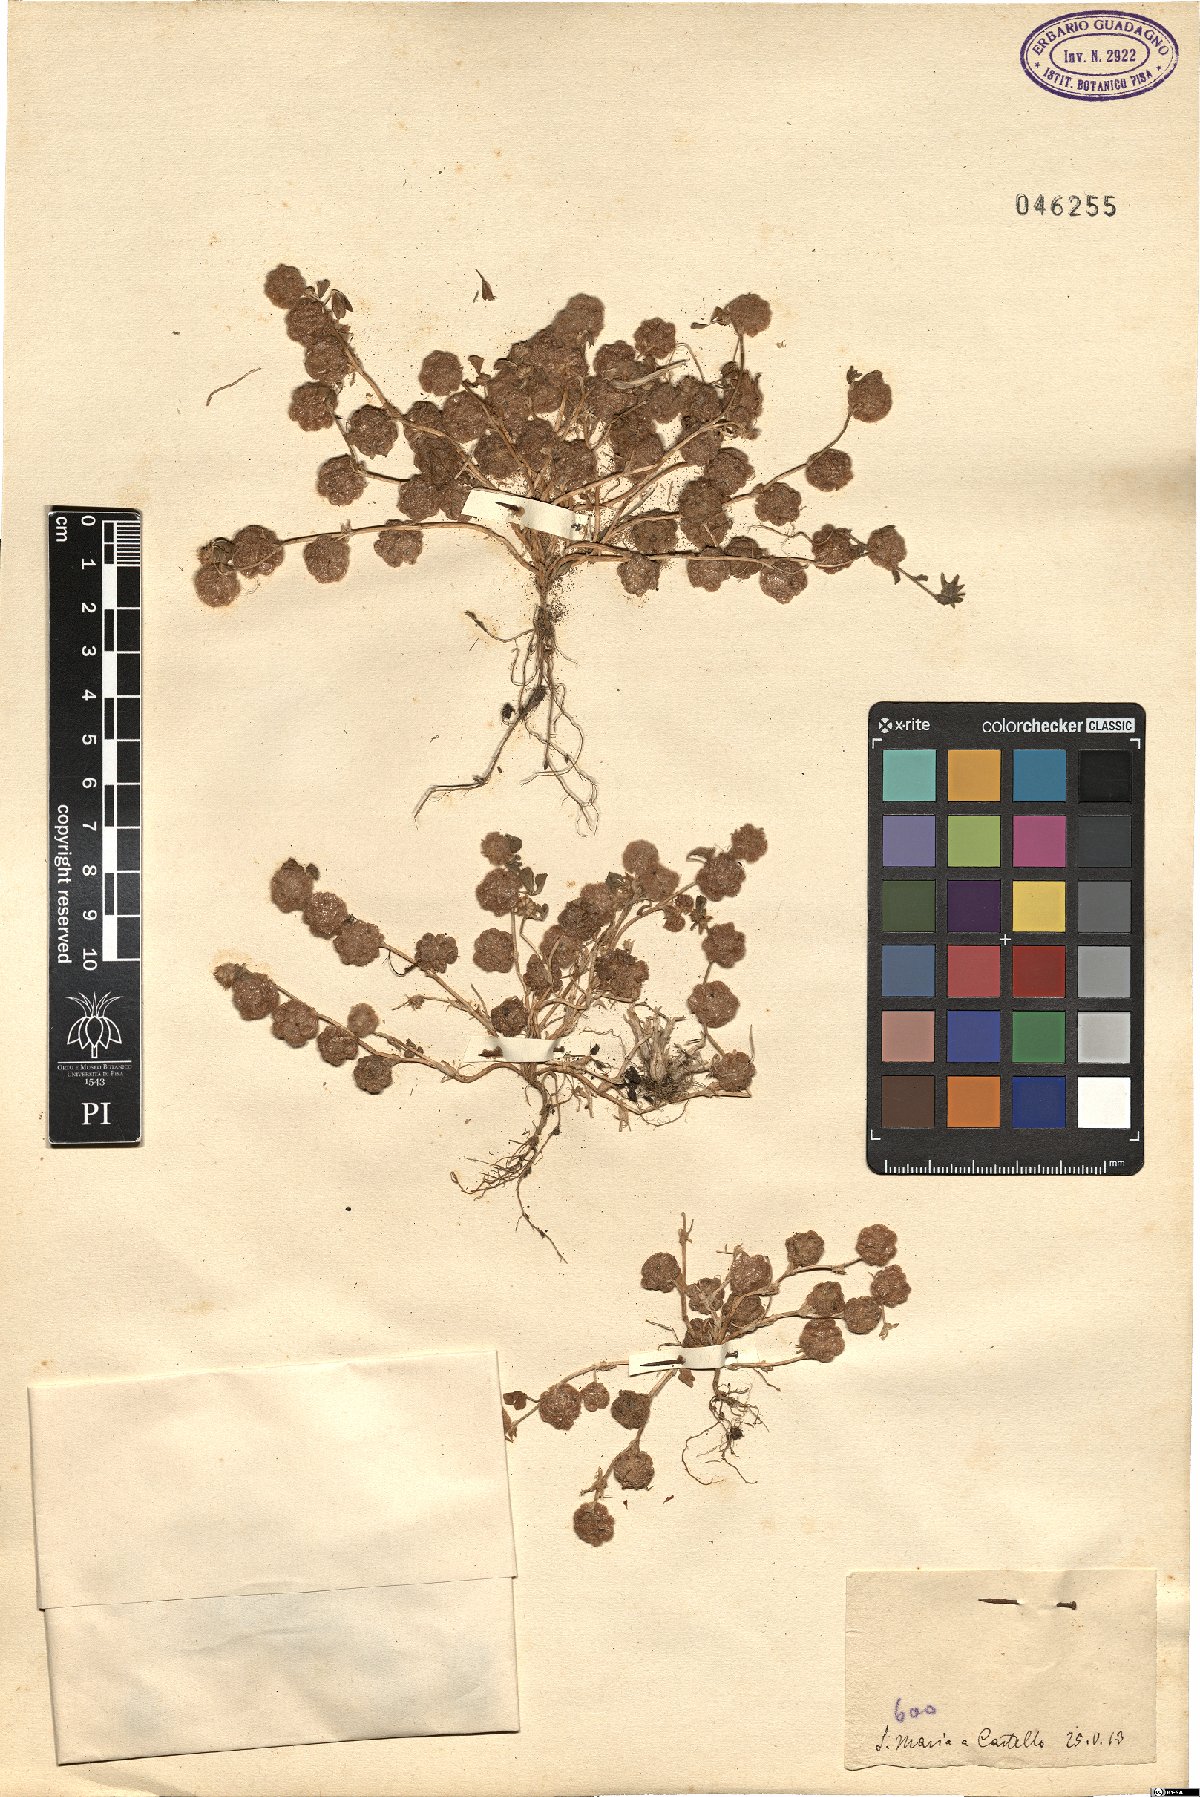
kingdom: Plantae
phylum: Tracheophyta
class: Magnoliopsida
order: Fabales
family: Fabaceae
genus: Trifolium
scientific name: Trifolium
